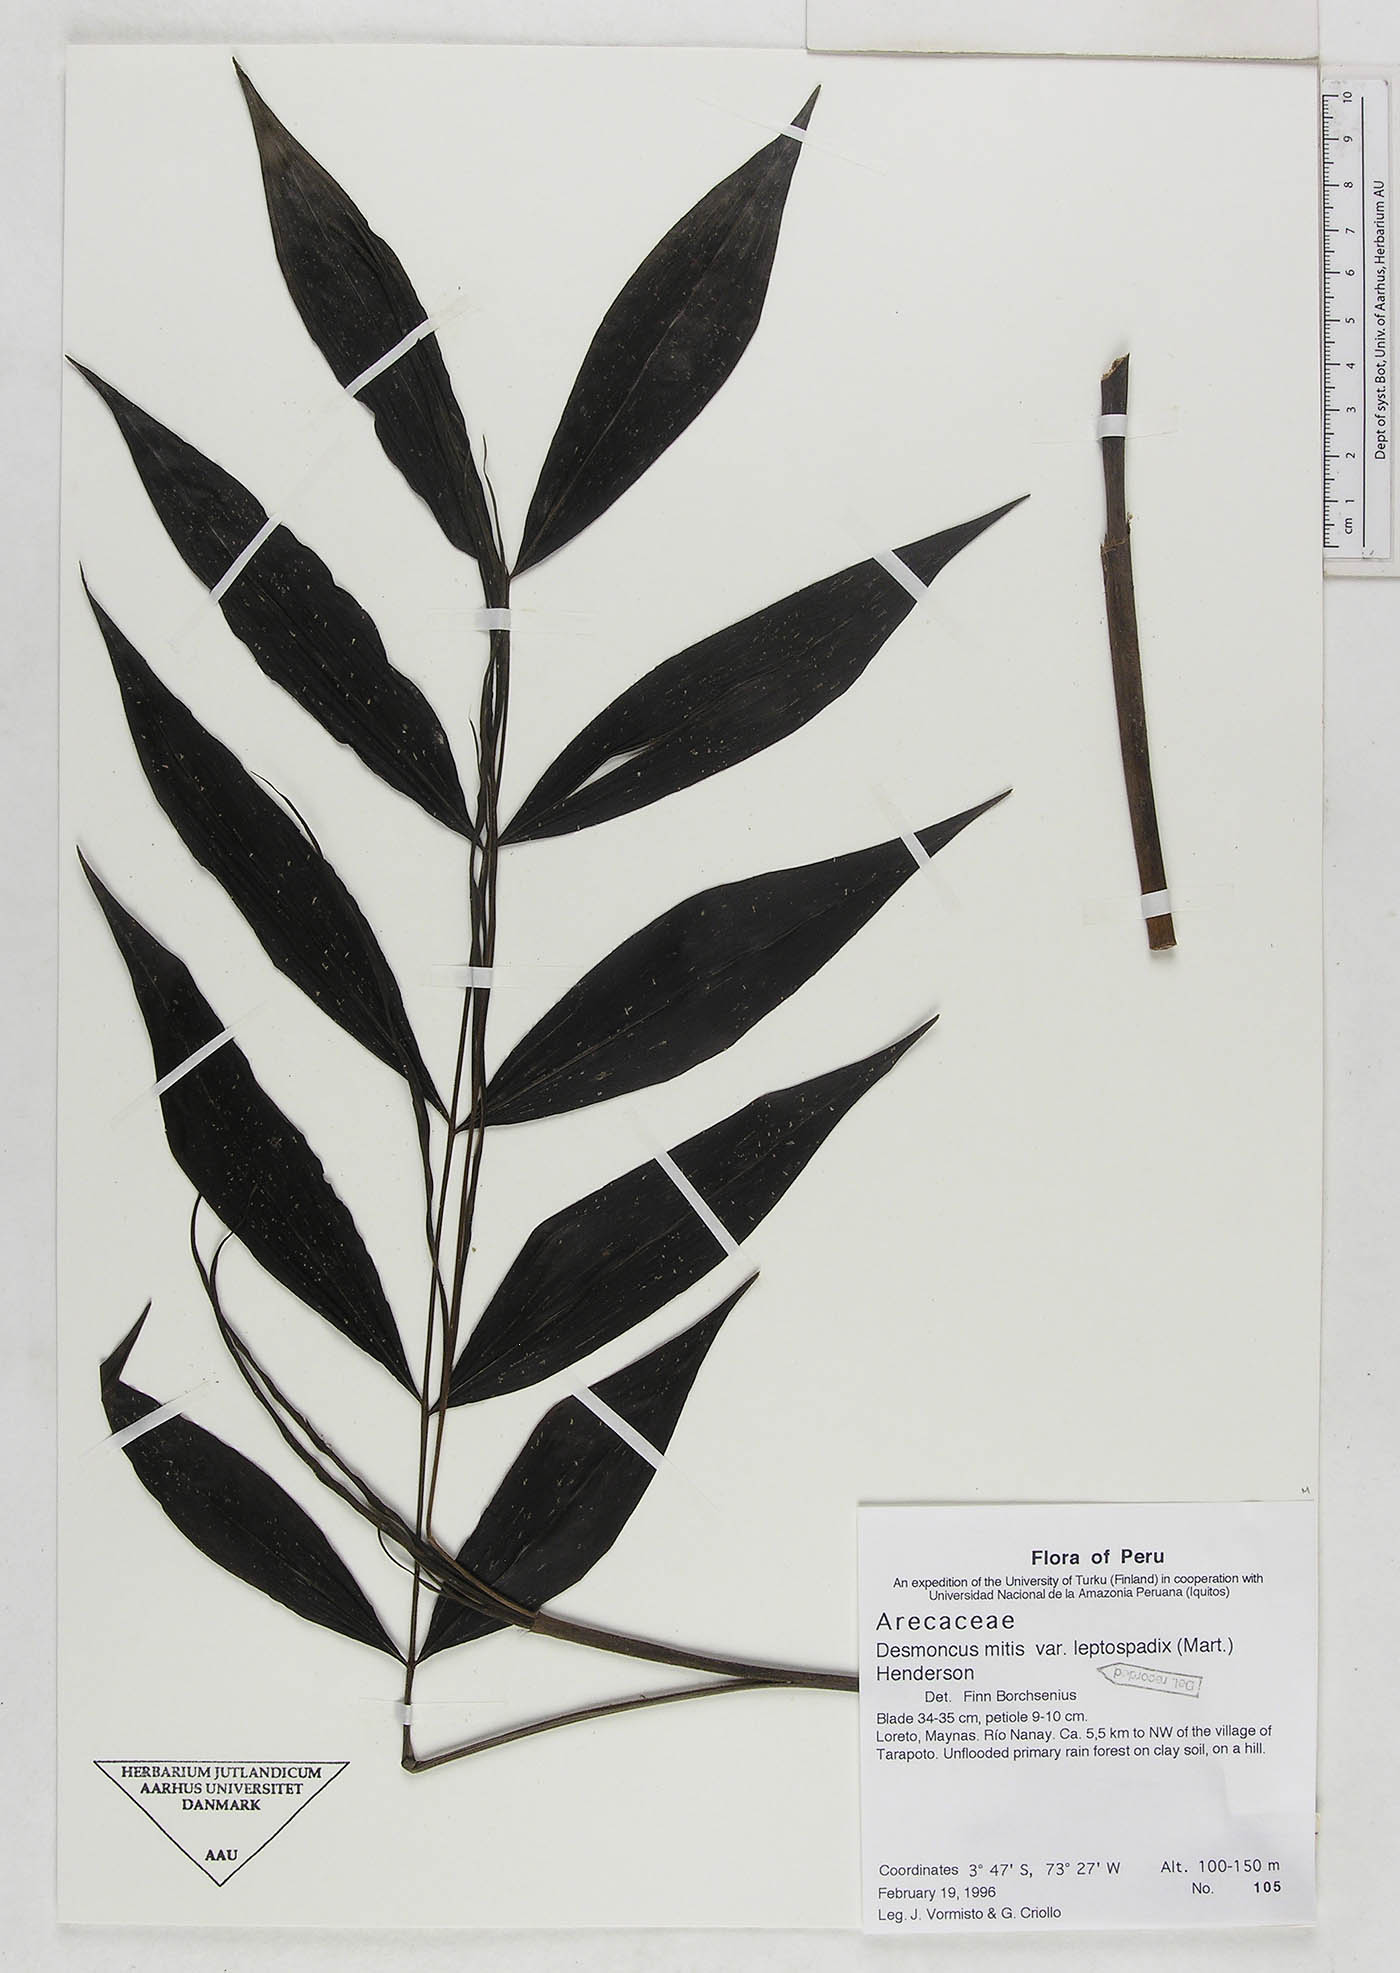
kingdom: Plantae
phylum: Tracheophyta
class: Liliopsida
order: Arecales
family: Arecaceae
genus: Desmoncus
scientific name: Desmoncus mitis
